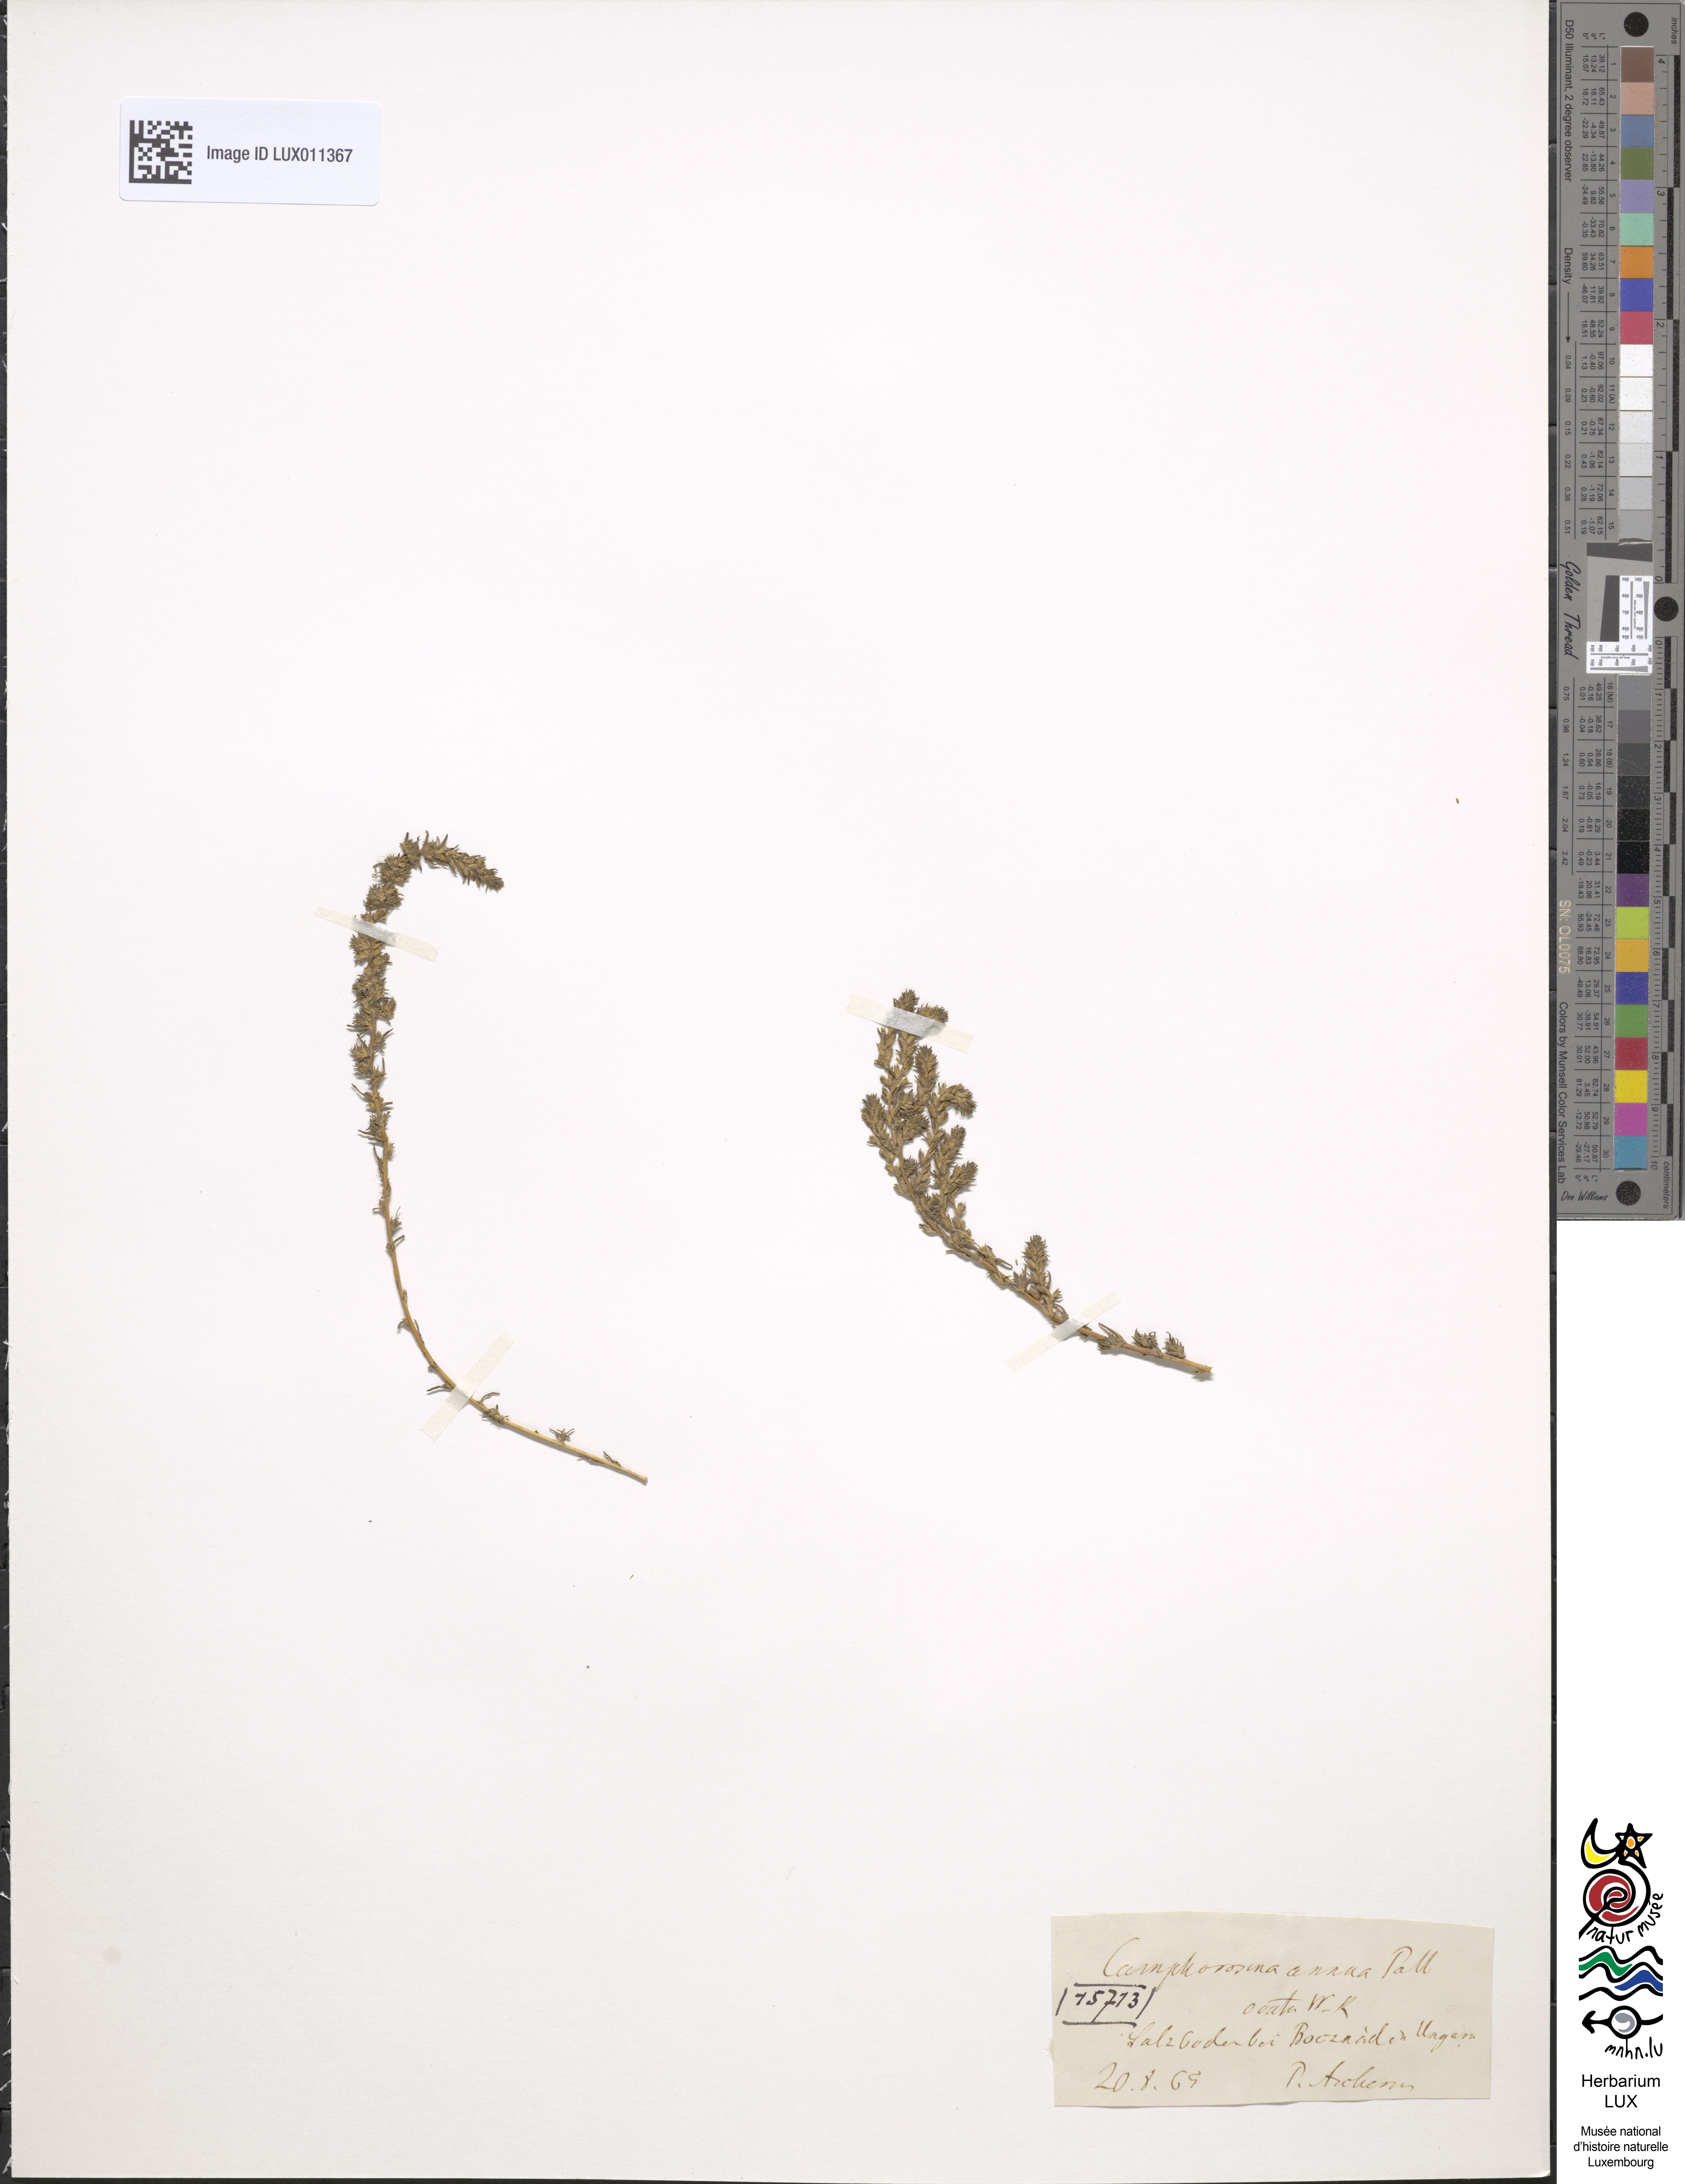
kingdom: Plantae
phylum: Tracheophyta
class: Magnoliopsida
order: Caryophyllales
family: Amaranthaceae
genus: Camphorosma
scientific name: Camphorosma annua
